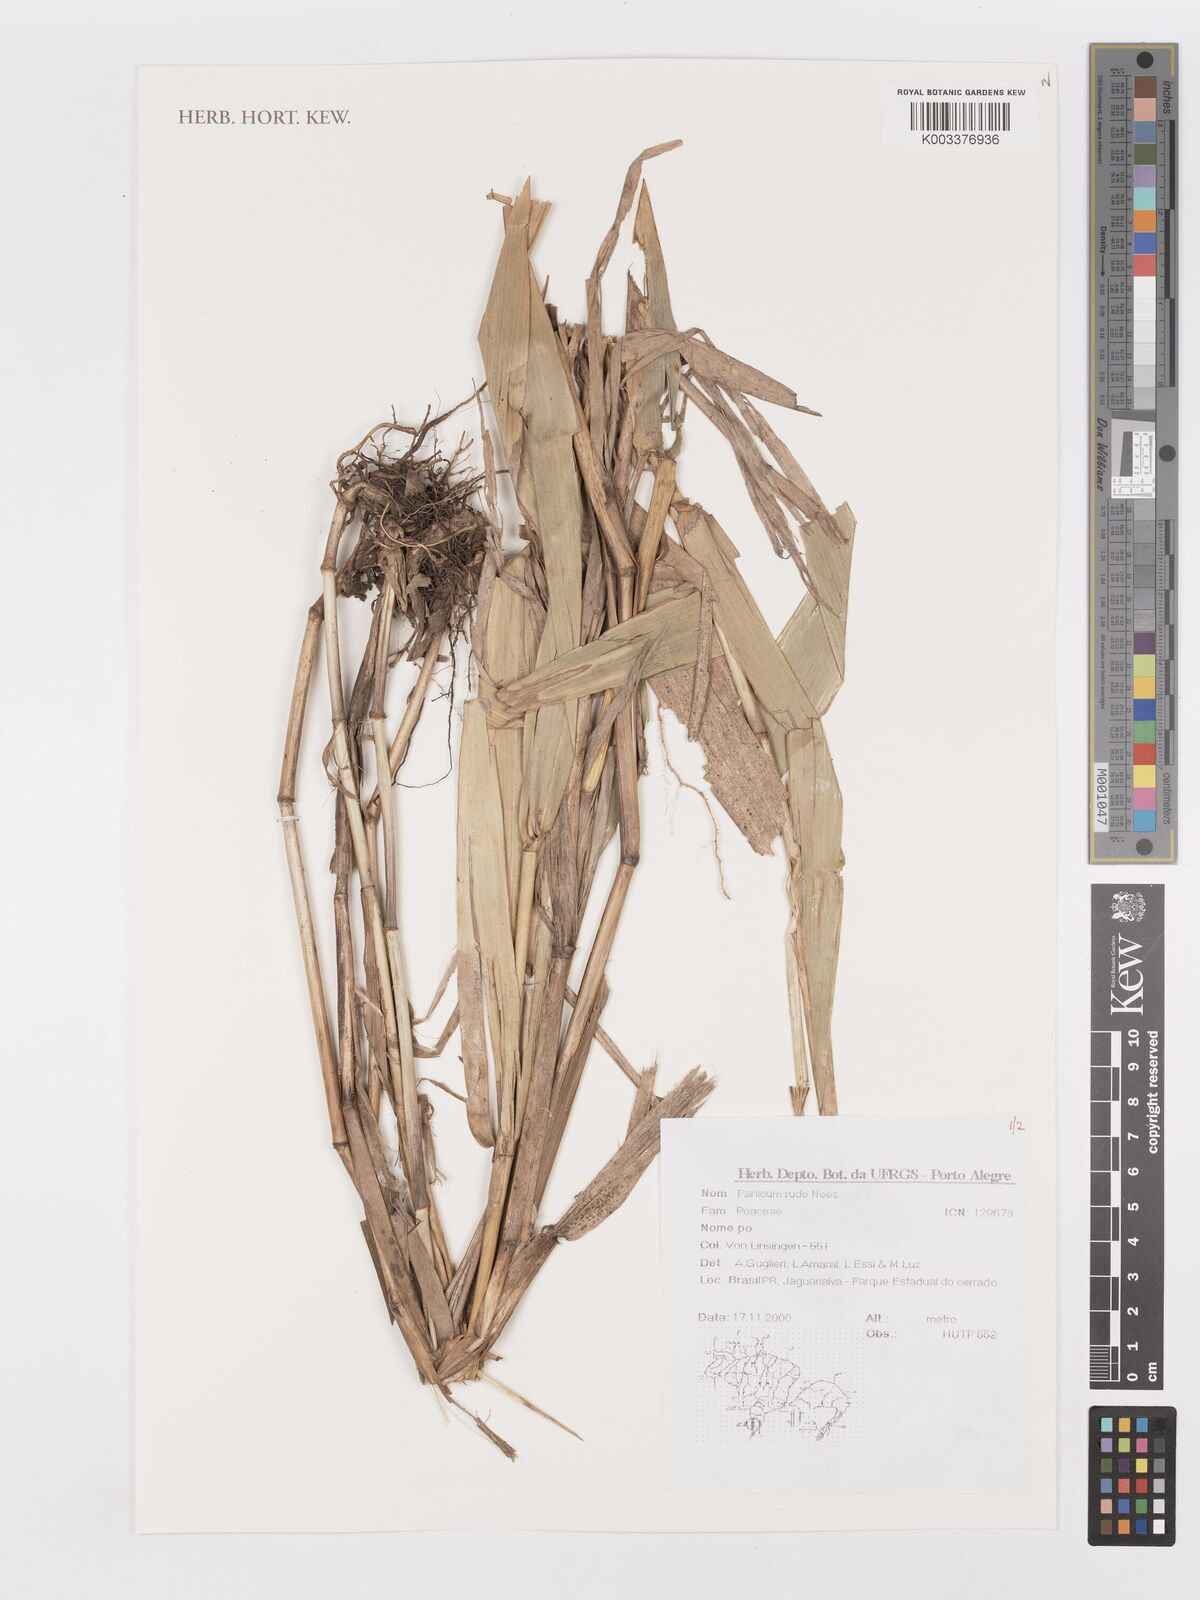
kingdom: Plantae
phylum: Tracheophyta
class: Liliopsida
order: Poales
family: Poaceae
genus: Setaria
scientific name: Setaria verticillata
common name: Hooked bristlegrass
